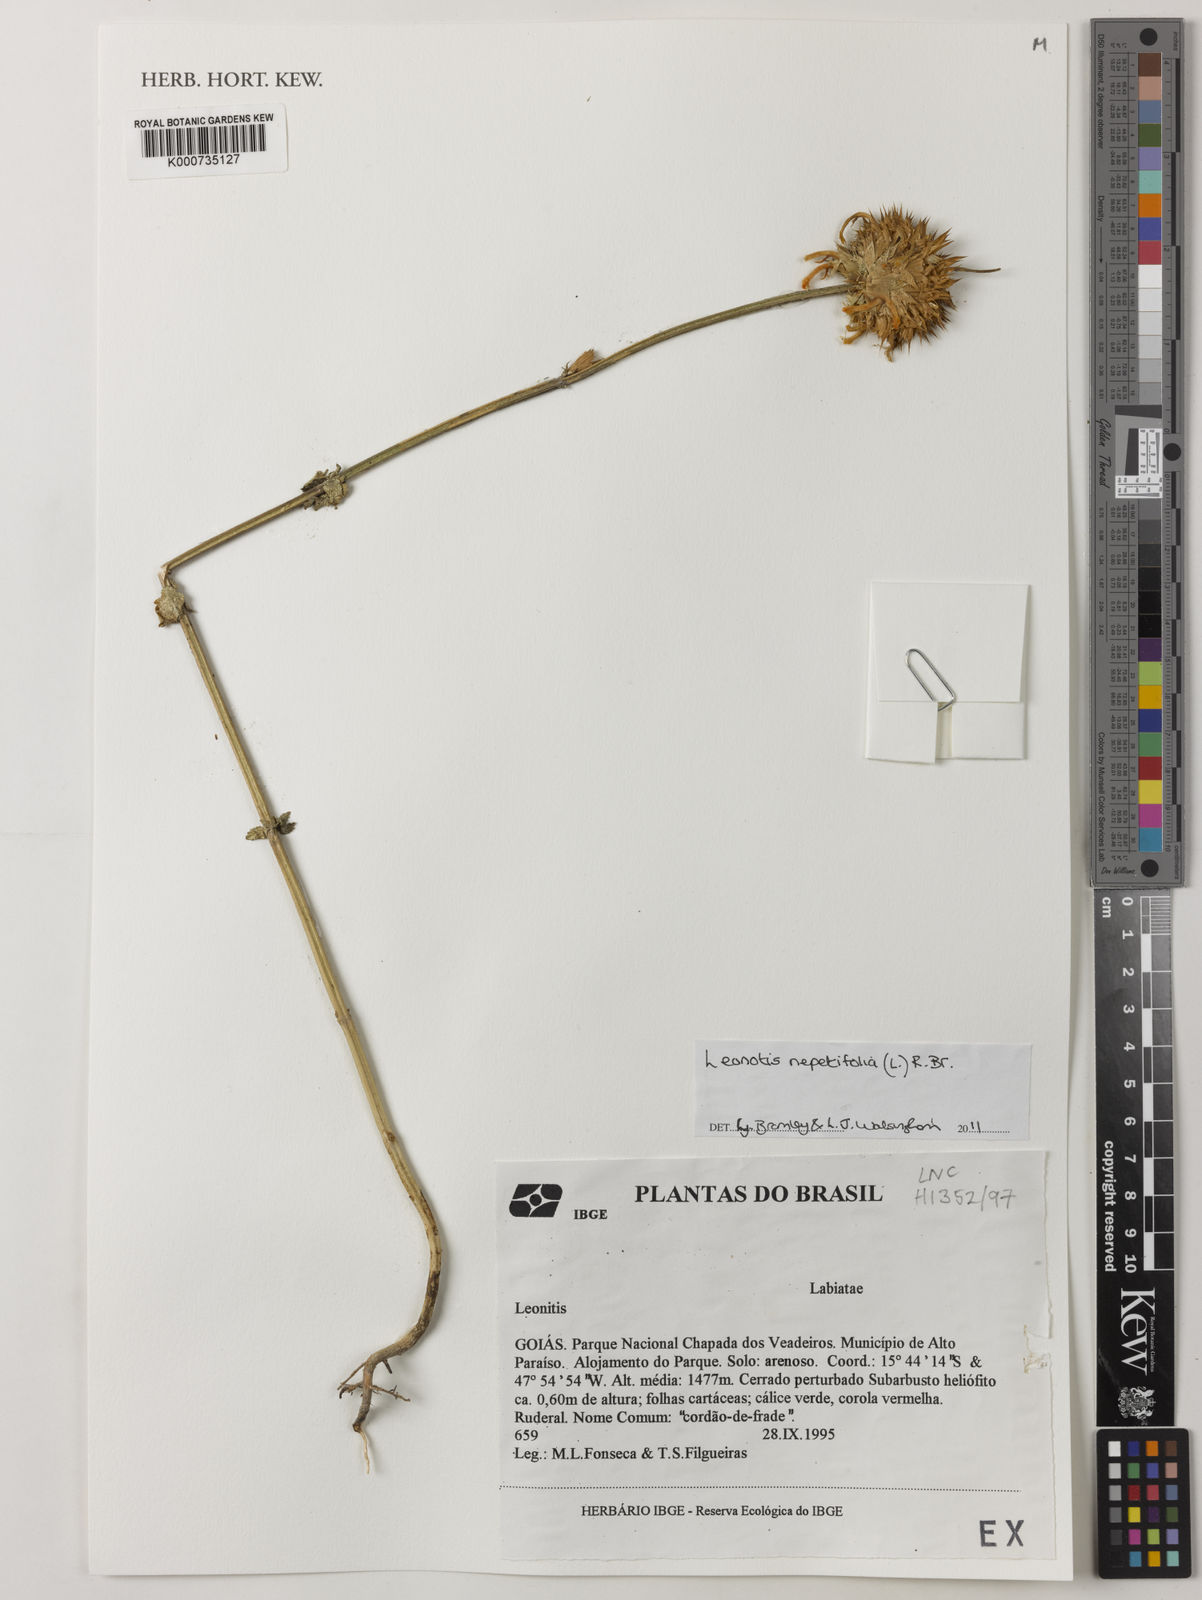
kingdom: Plantae
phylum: Tracheophyta
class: Magnoliopsida
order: Lamiales
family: Lamiaceae
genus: Leonotis
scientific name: Leonotis nepetifolia
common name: Christmas candlestick
